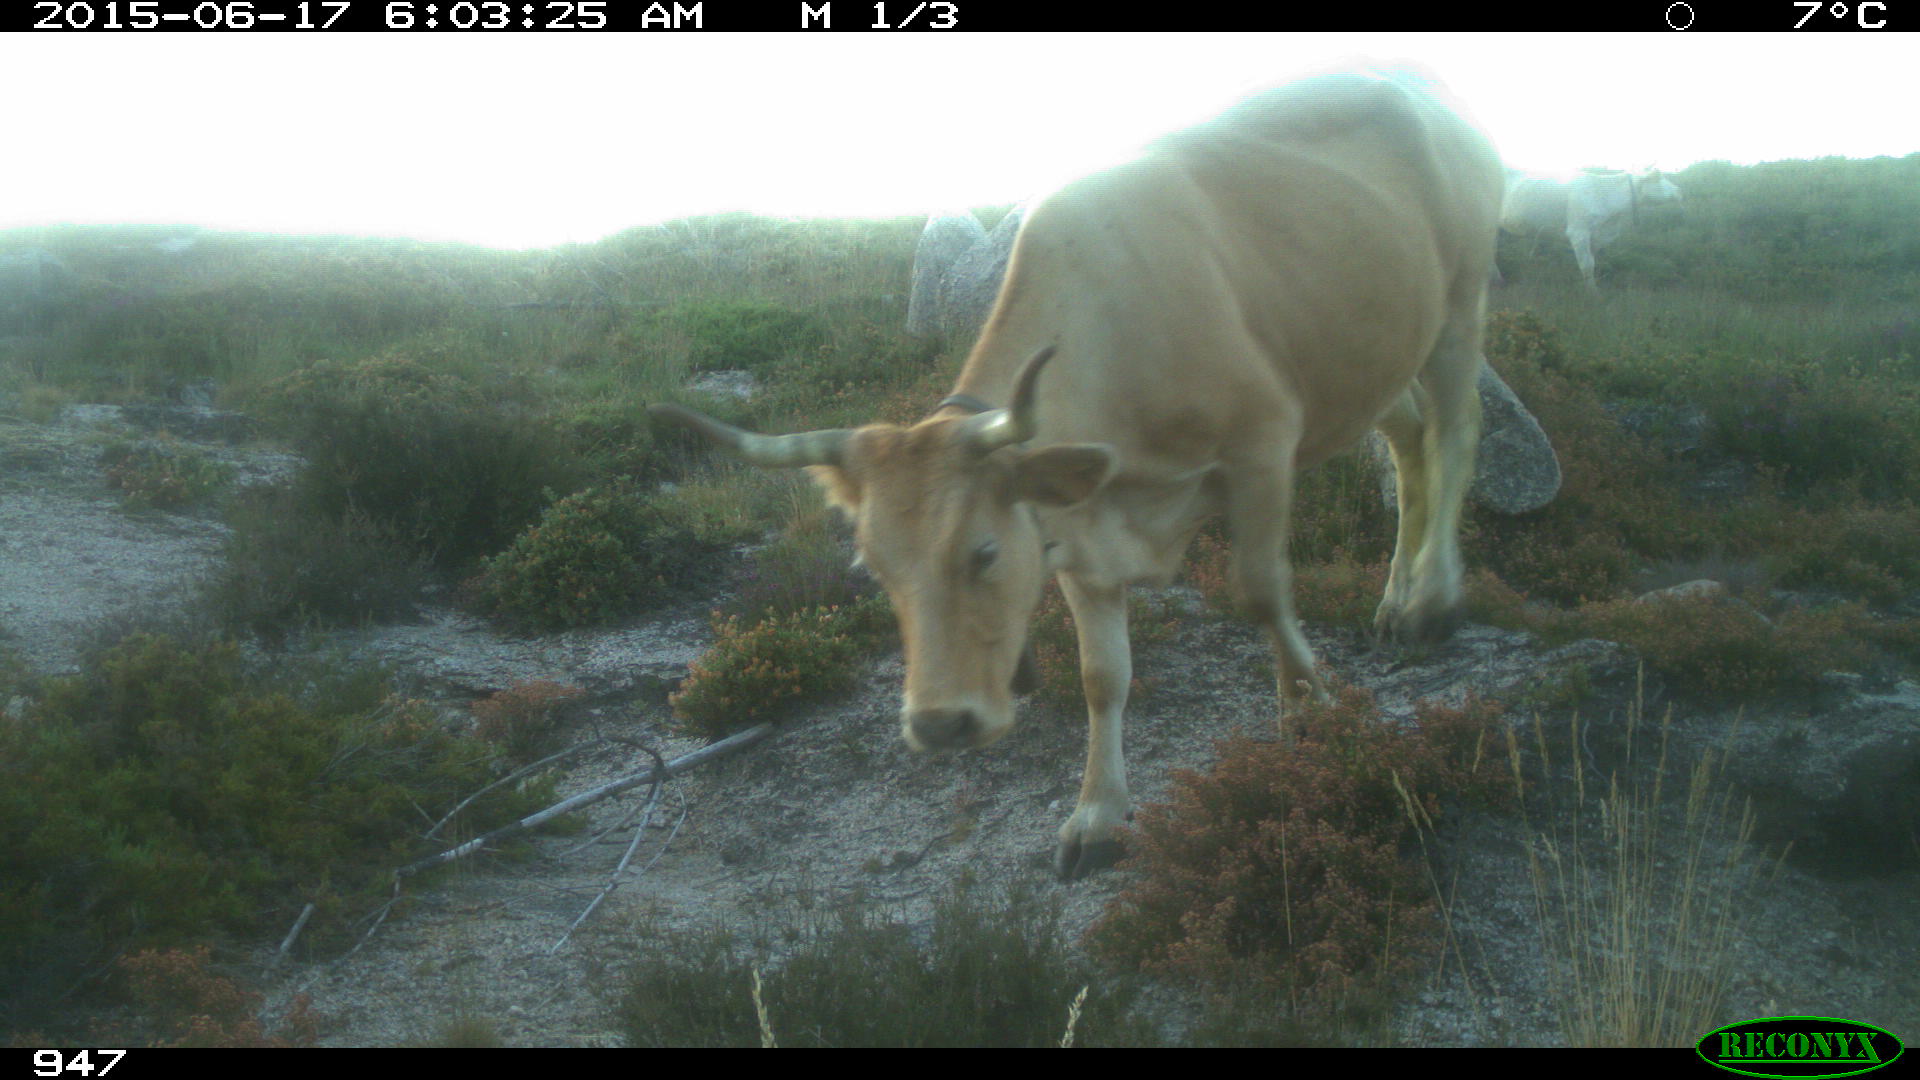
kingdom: Animalia
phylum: Chordata
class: Mammalia
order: Artiodactyla
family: Bovidae
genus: Bos
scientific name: Bos taurus
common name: Domesticated cattle
